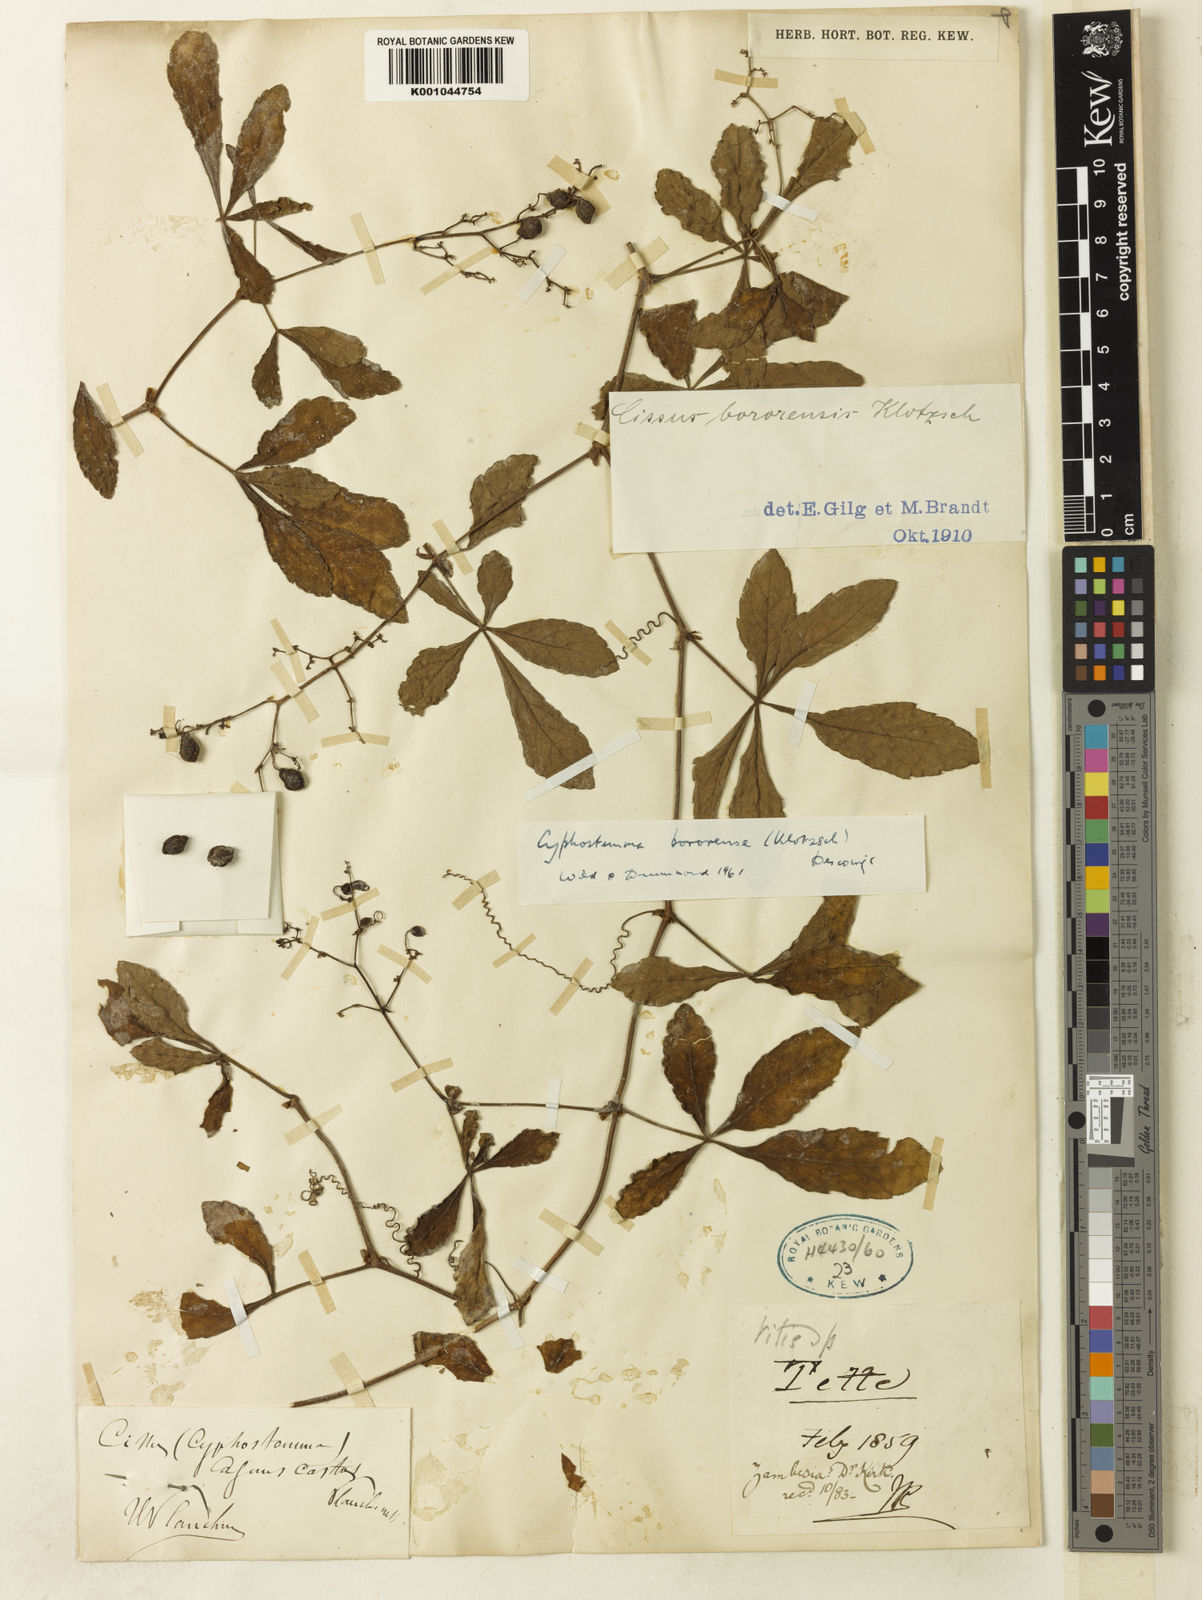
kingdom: Plantae
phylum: Tracheophyta
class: Magnoliopsida
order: Vitales
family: Vitaceae
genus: Cyphostemma
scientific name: Cyphostemma
